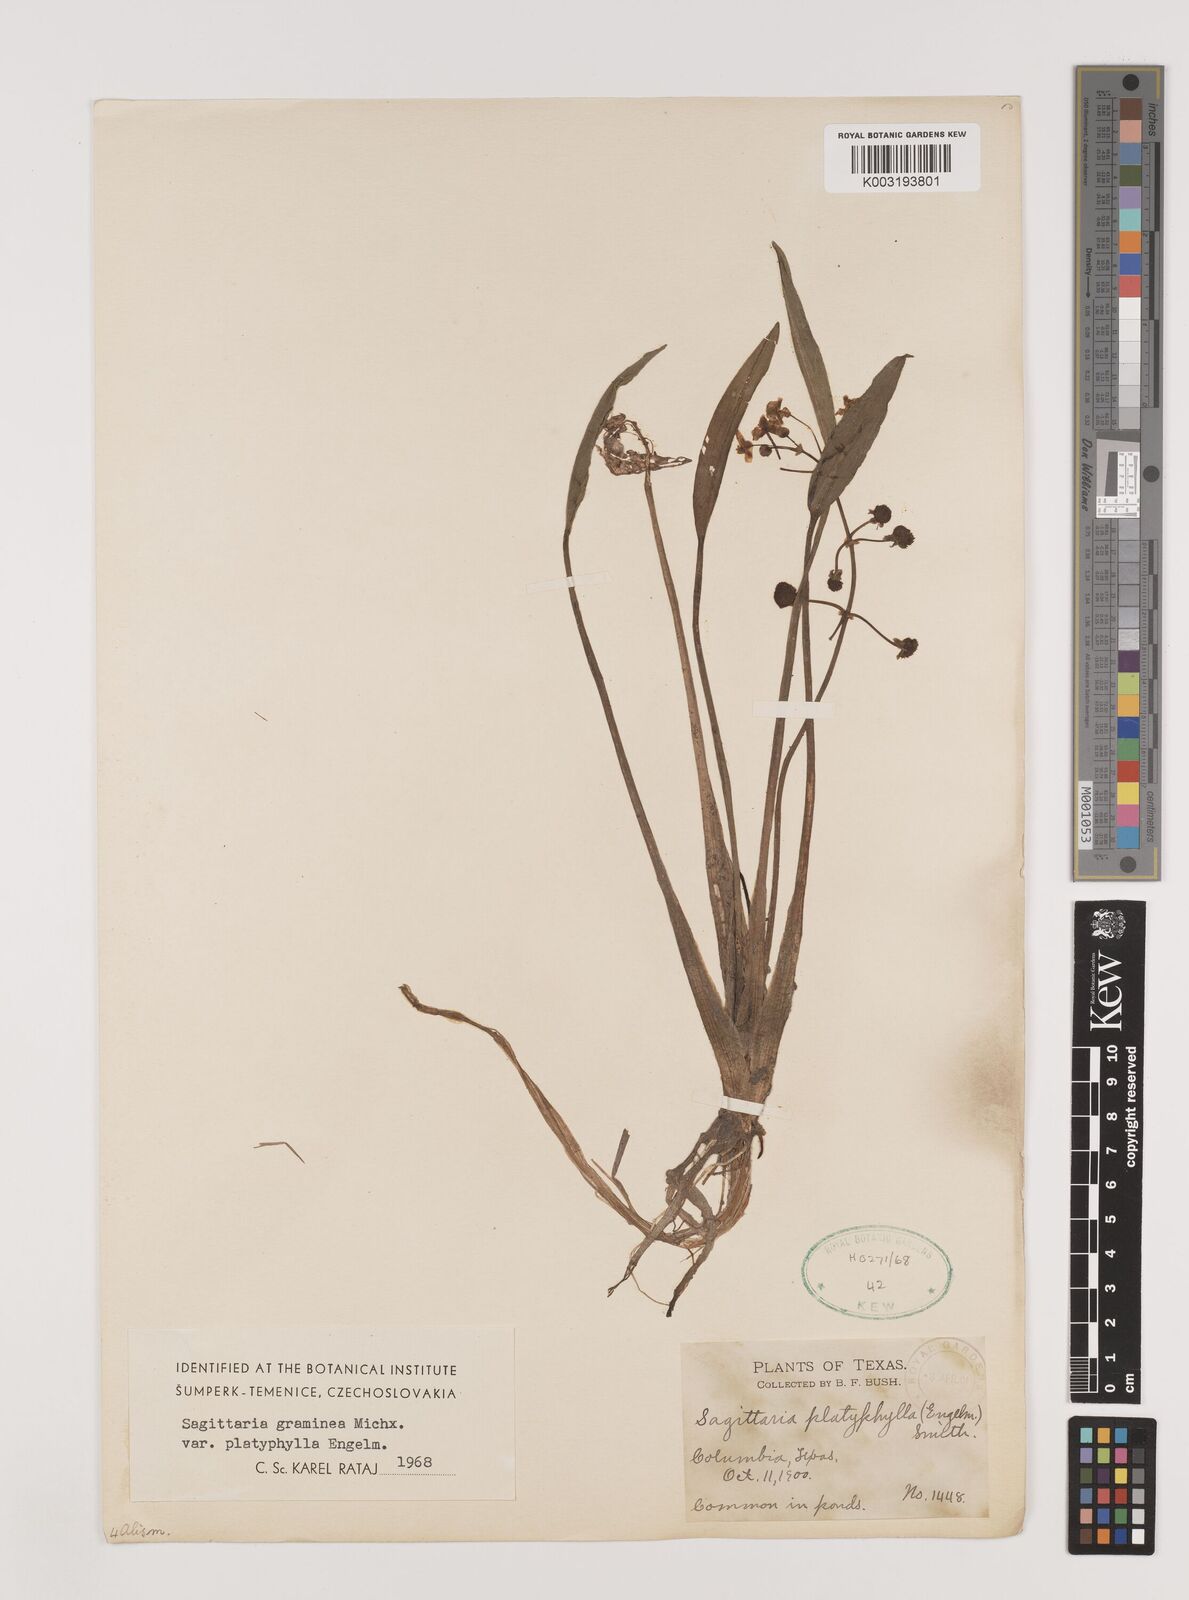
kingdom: Plantae
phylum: Tracheophyta
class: Liliopsida
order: Alismatales
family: Alismataceae
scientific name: Alismataceae
